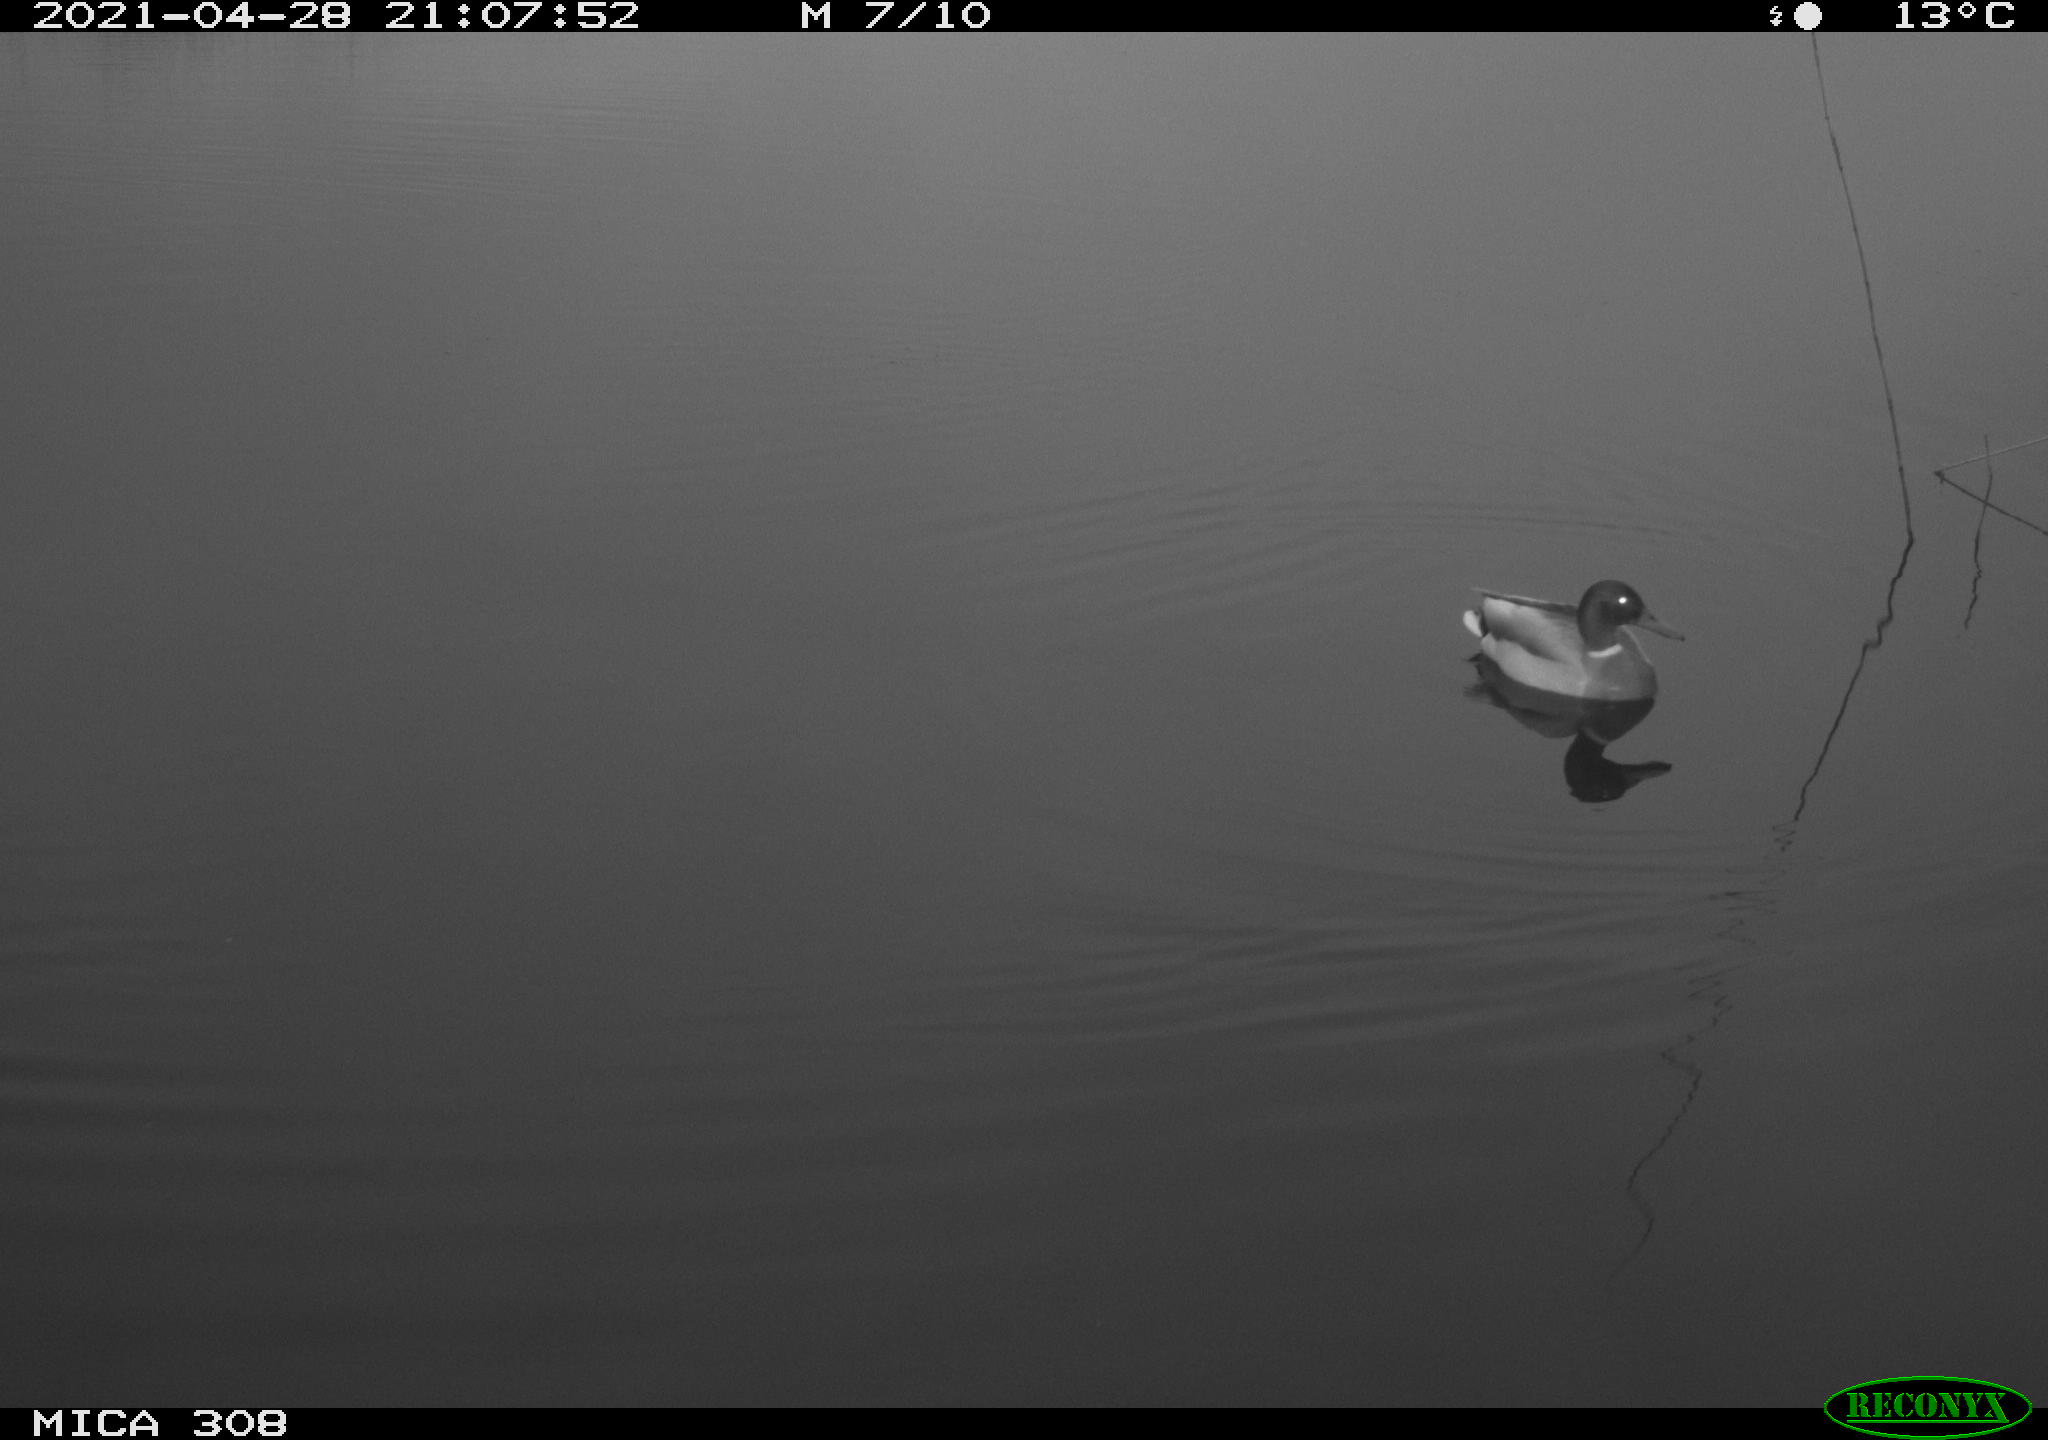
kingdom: Animalia
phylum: Chordata
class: Aves
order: Anseriformes
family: Anatidae
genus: Anas
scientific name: Anas platyrhynchos
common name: Mallard
